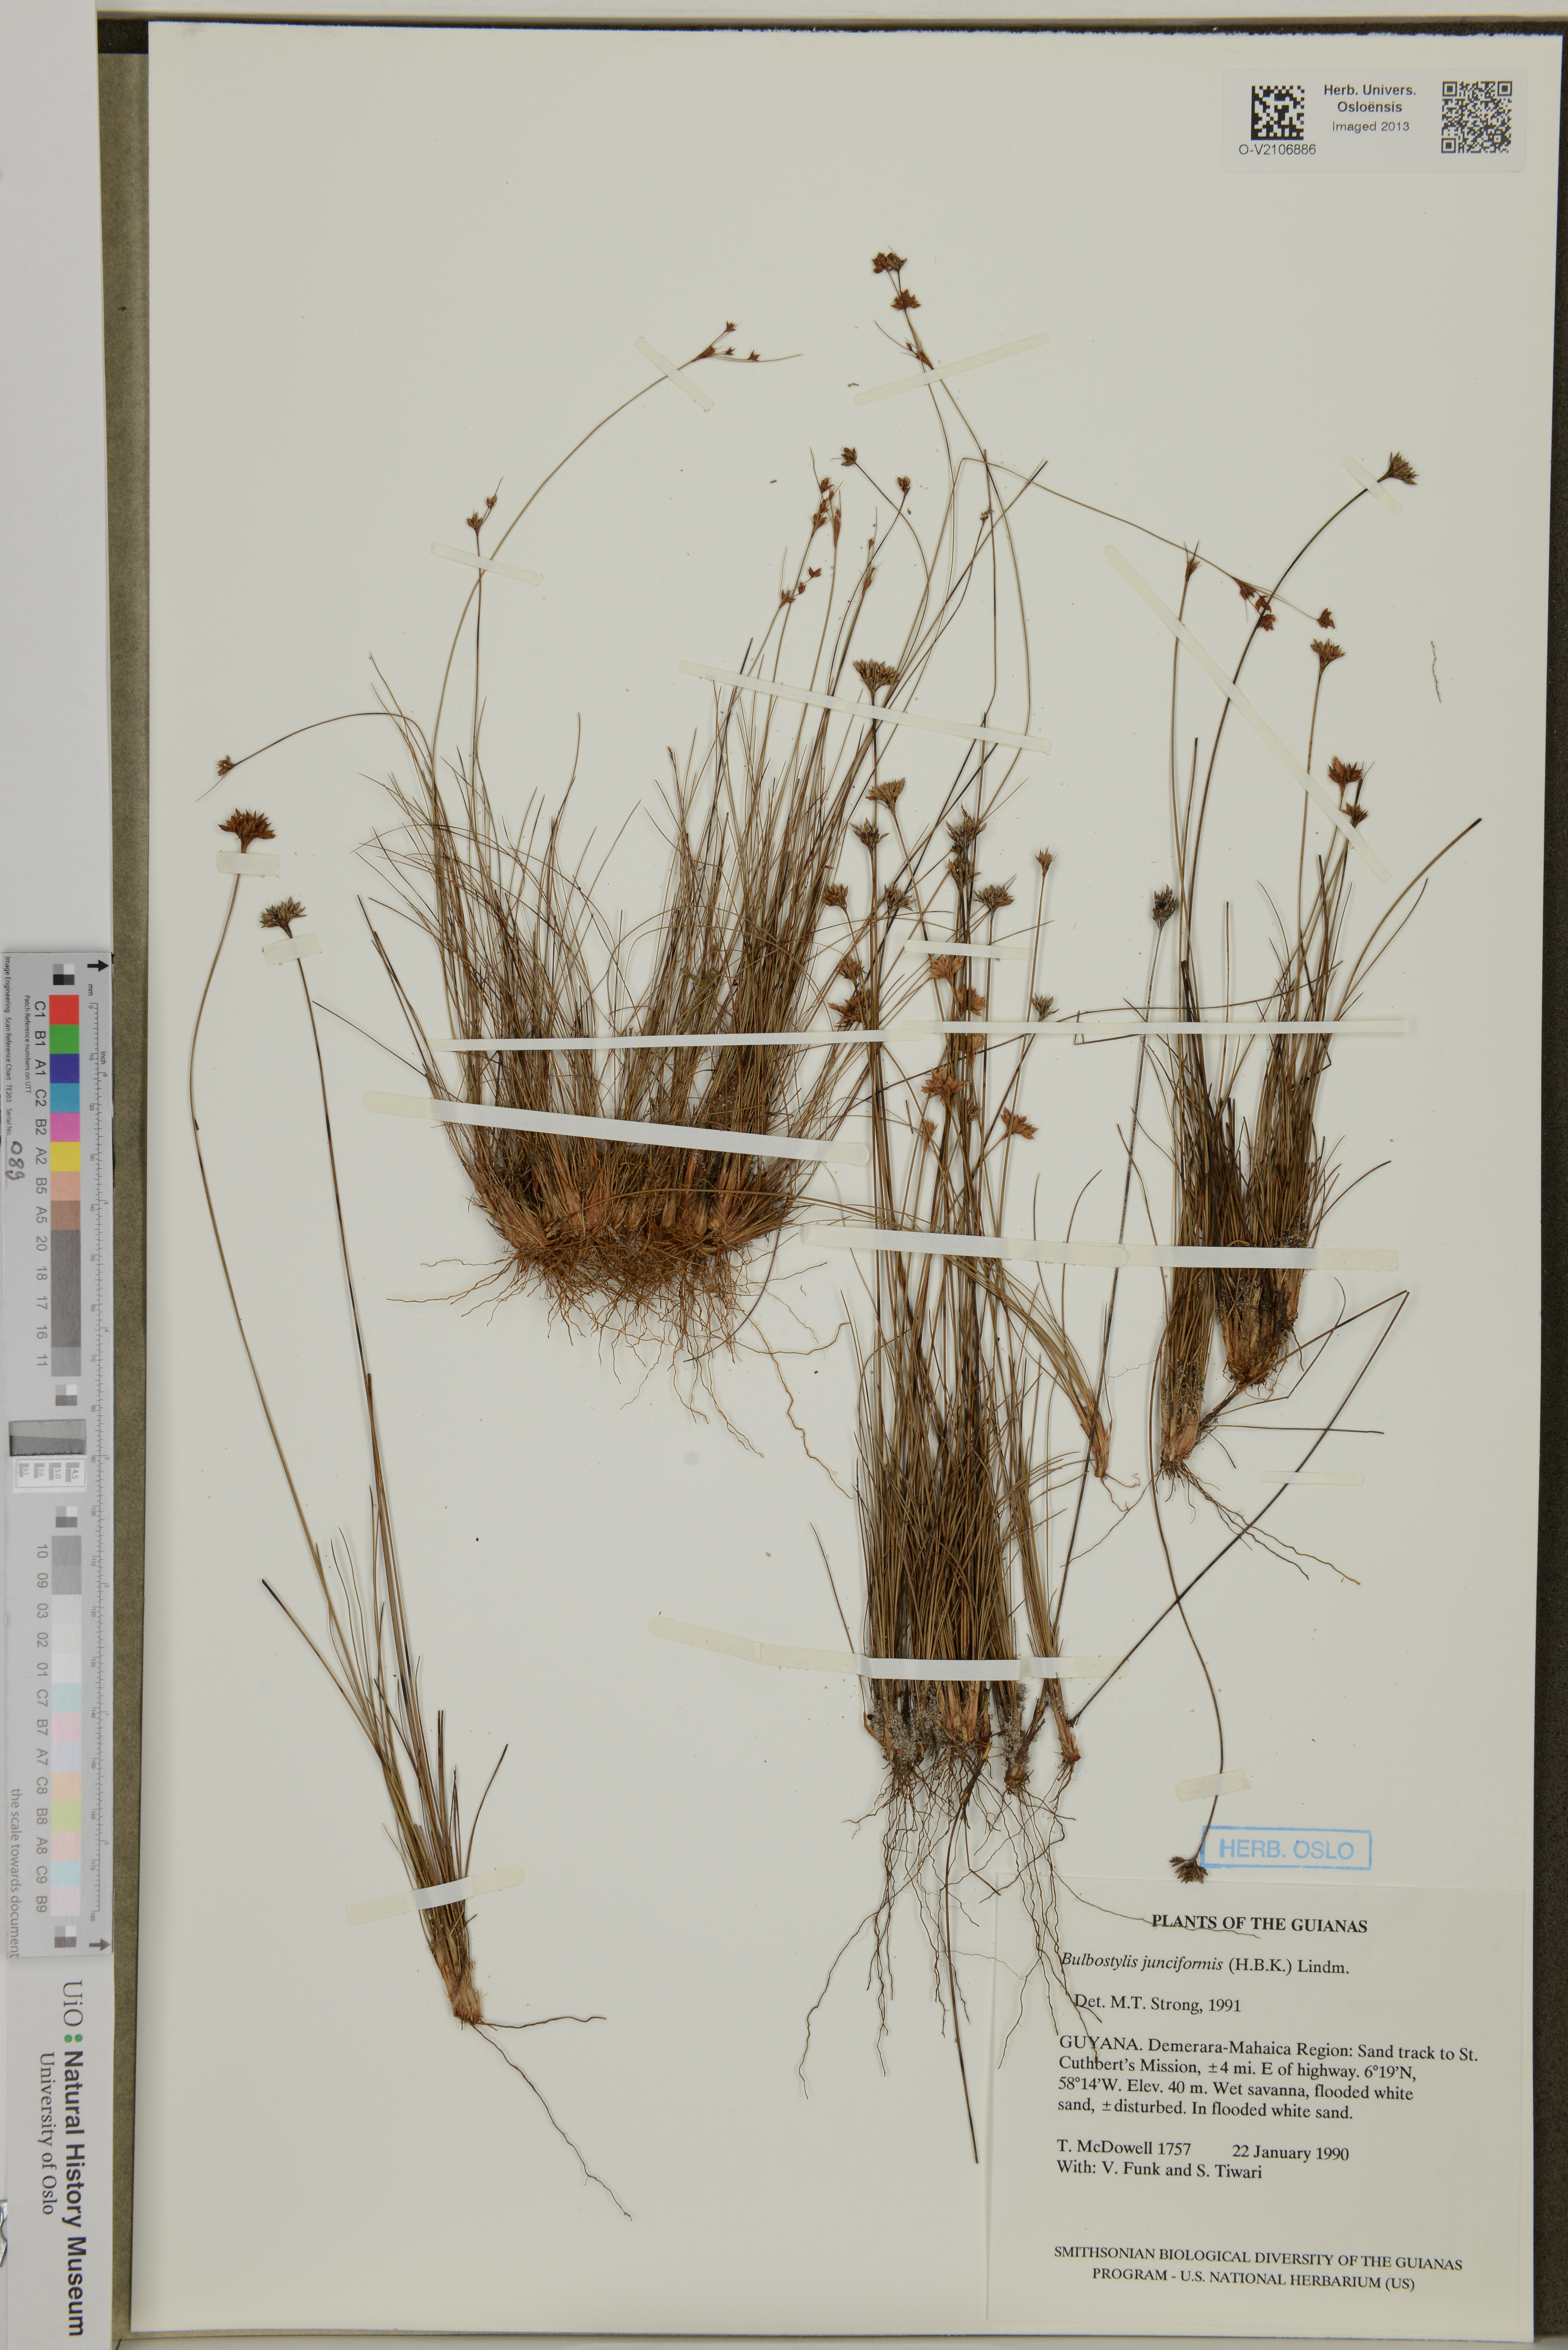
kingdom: Plantae
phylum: Tracheophyta
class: Liliopsida
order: Poales
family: Cyperaceae
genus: Bulbostylis
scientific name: Bulbostylis junciformis
